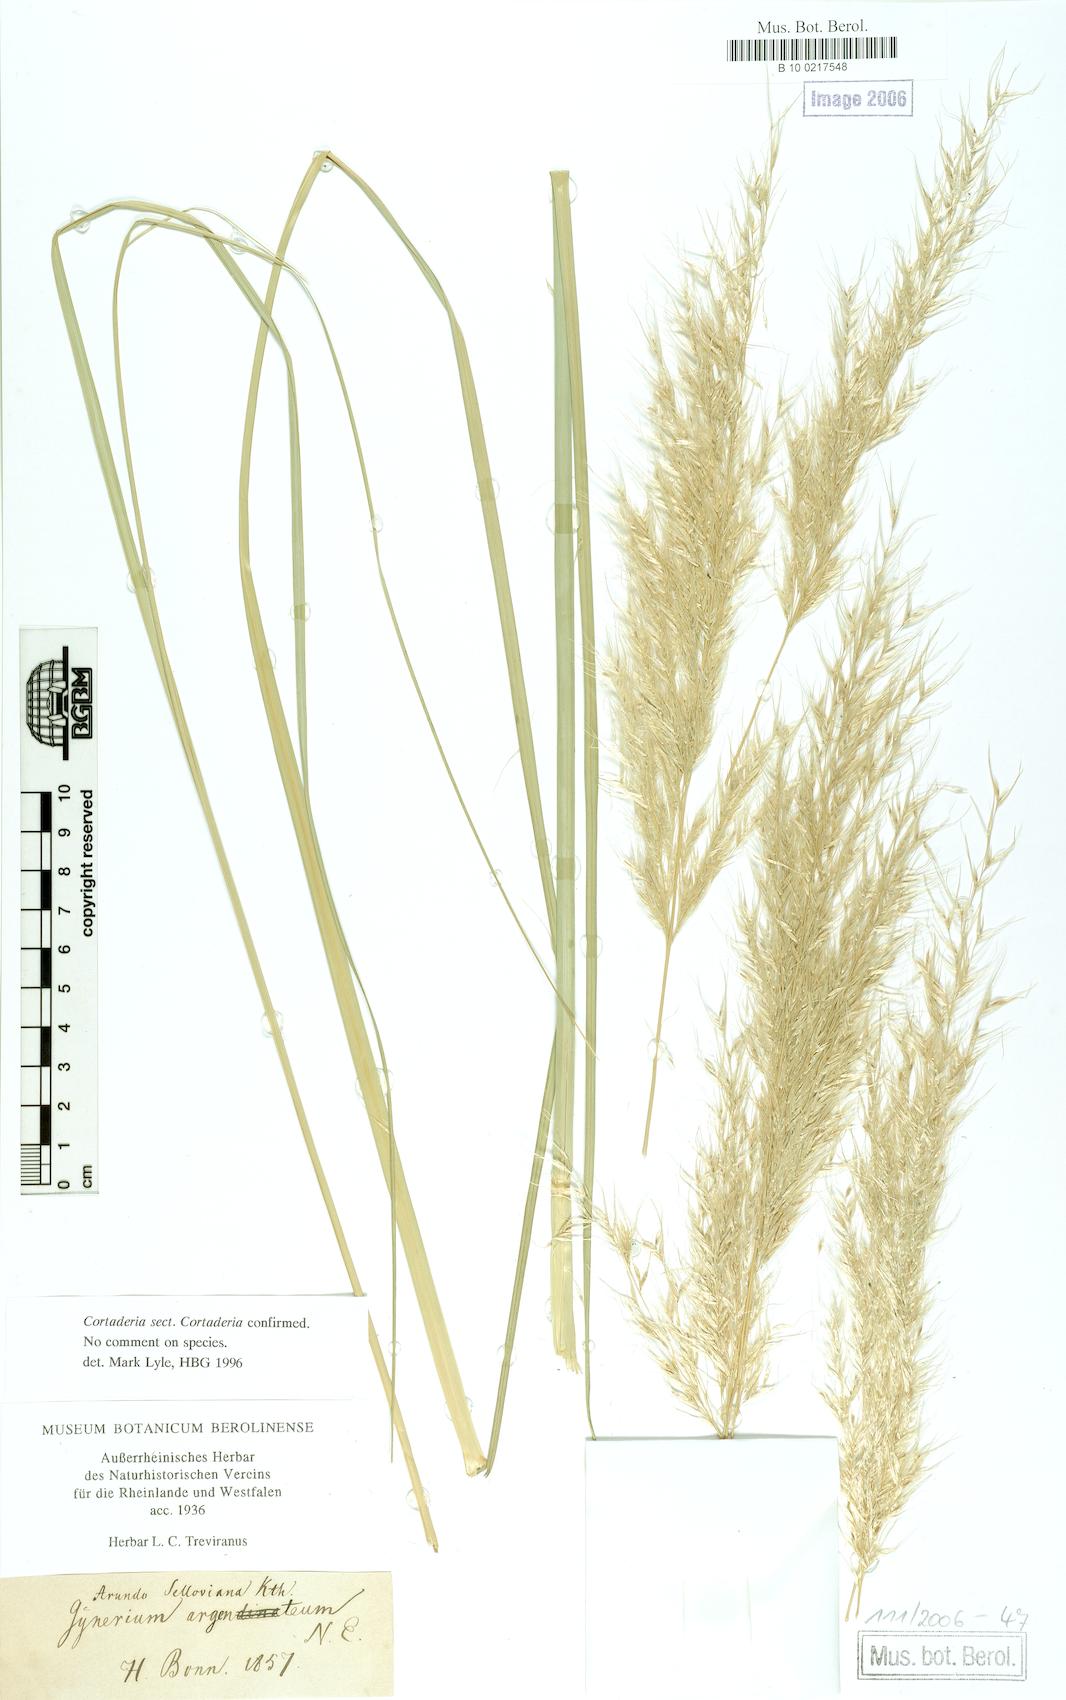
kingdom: Plantae
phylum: Tracheophyta
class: Liliopsida
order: Poales
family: Poaceae
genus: Cortaderia
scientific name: Cortaderia selloana
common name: Uruguayan pampas grass
